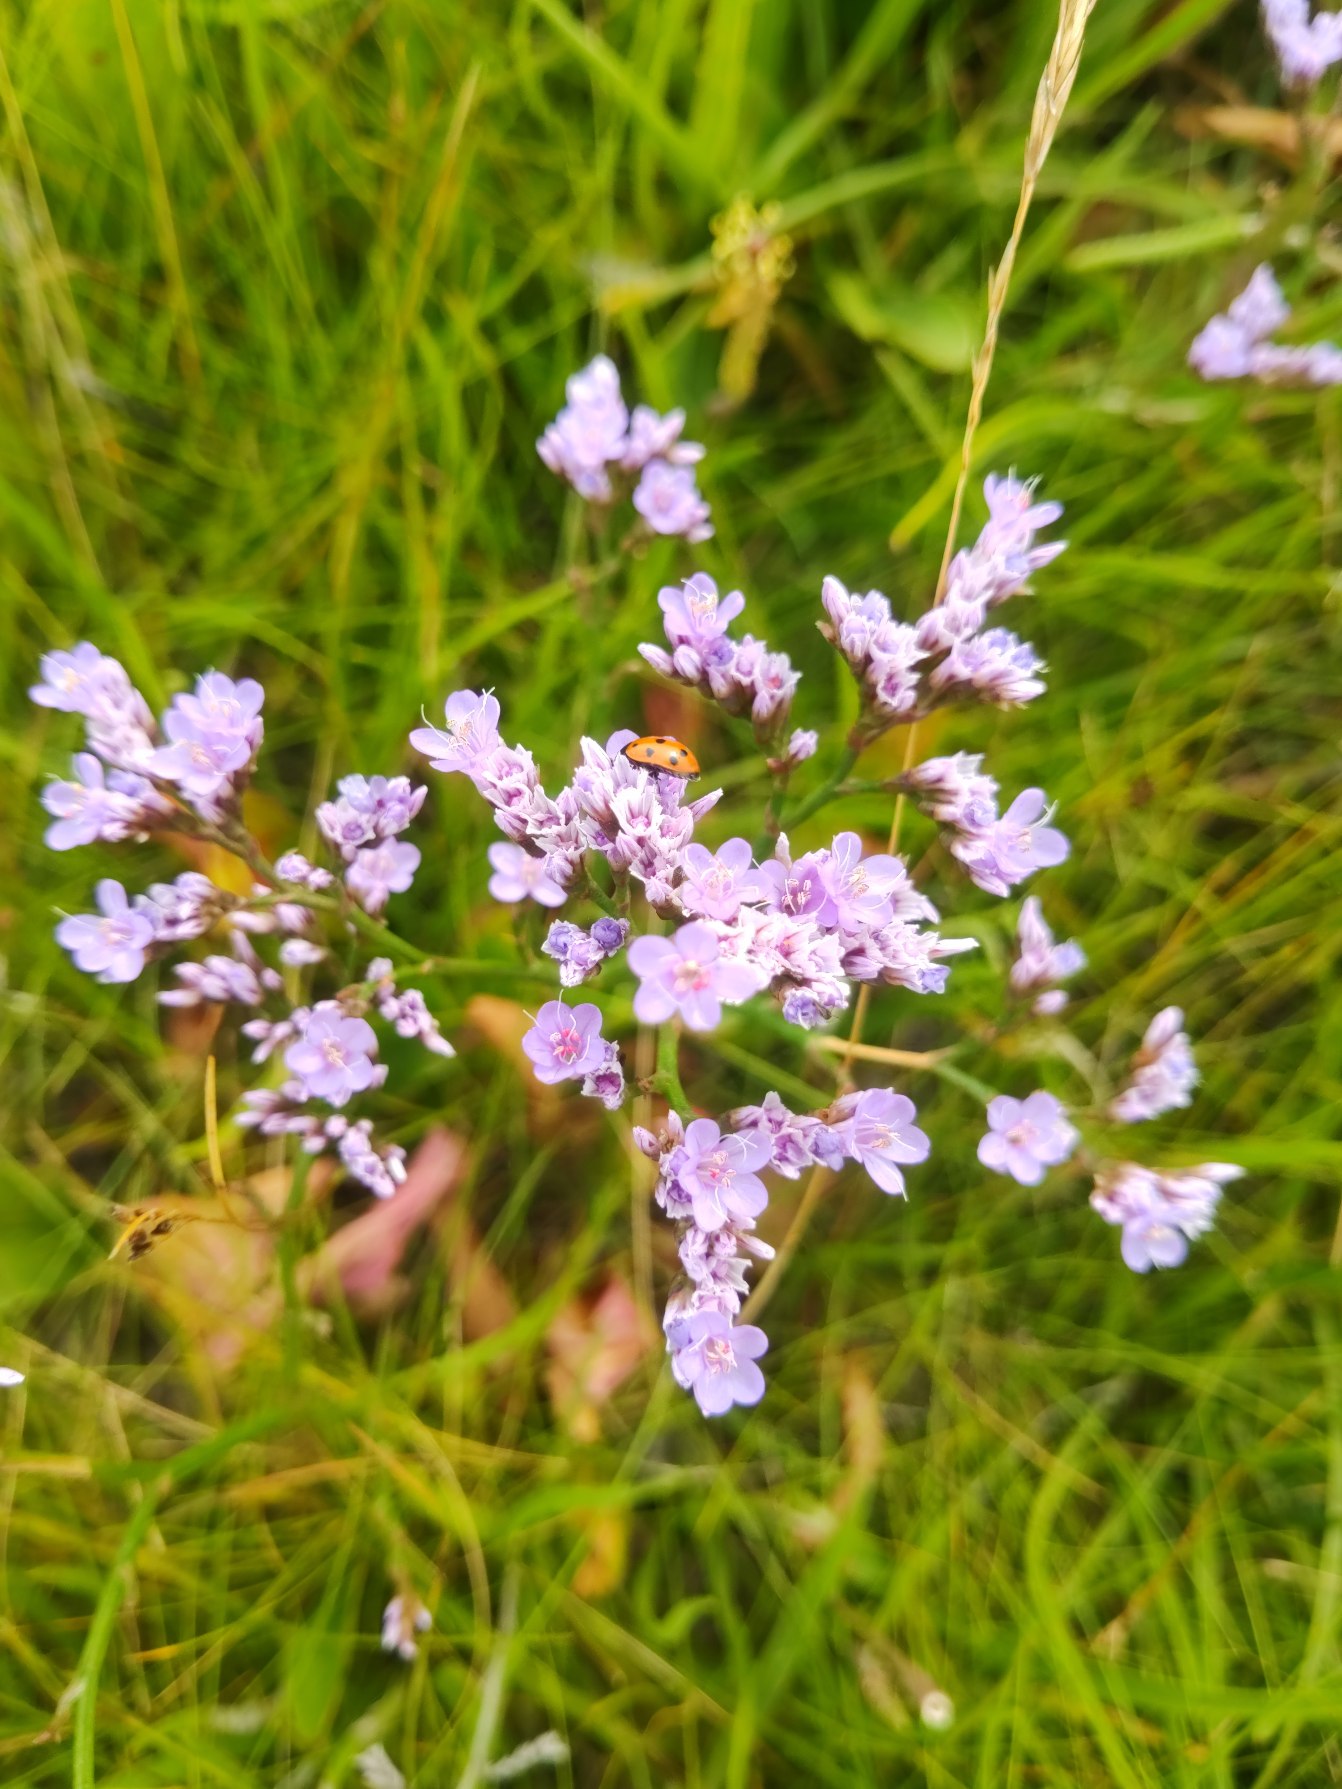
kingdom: Plantae
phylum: Tracheophyta
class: Magnoliopsida
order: Caryophyllales
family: Plumbaginaceae
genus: Limonium
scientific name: Limonium vulgare
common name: Tætblomstret hindebæger
